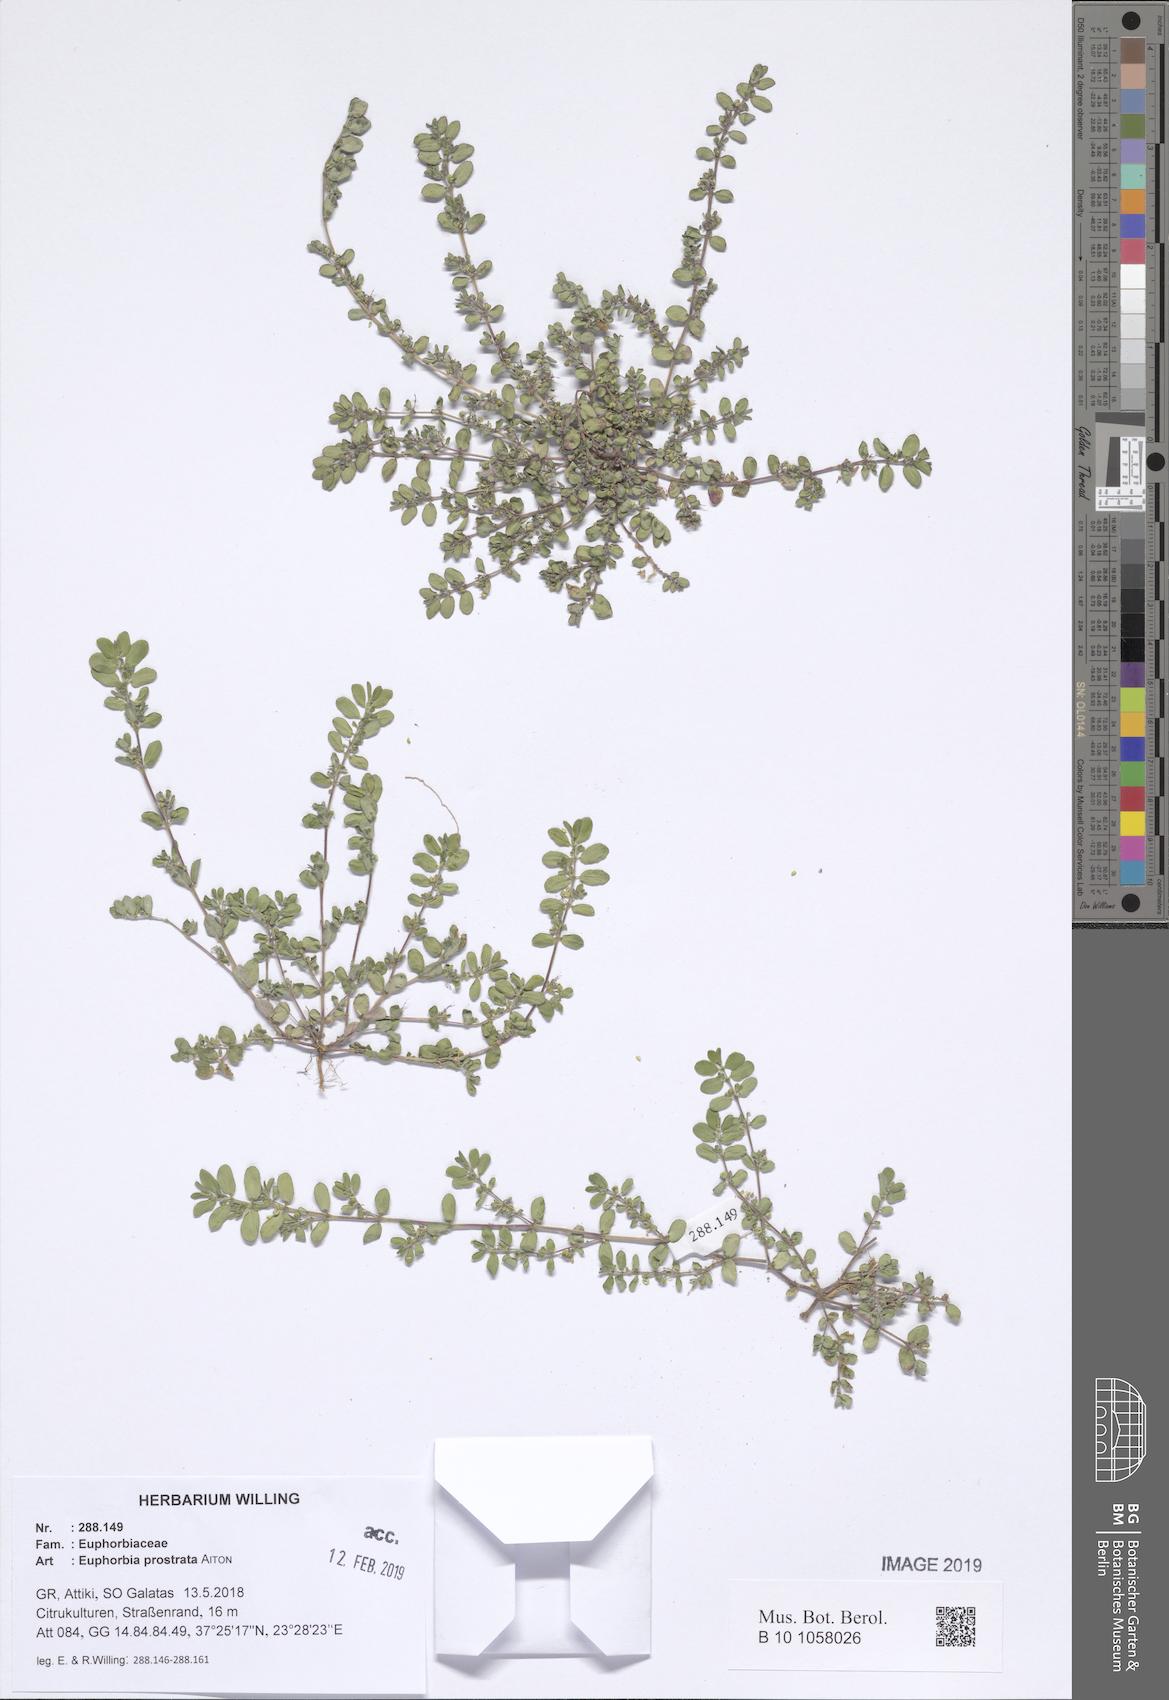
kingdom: Plantae
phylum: Tracheophyta
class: Magnoliopsida
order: Malpighiales
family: Euphorbiaceae
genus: Euphorbia
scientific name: Euphorbia prostrata
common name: Prostrate sandmat
